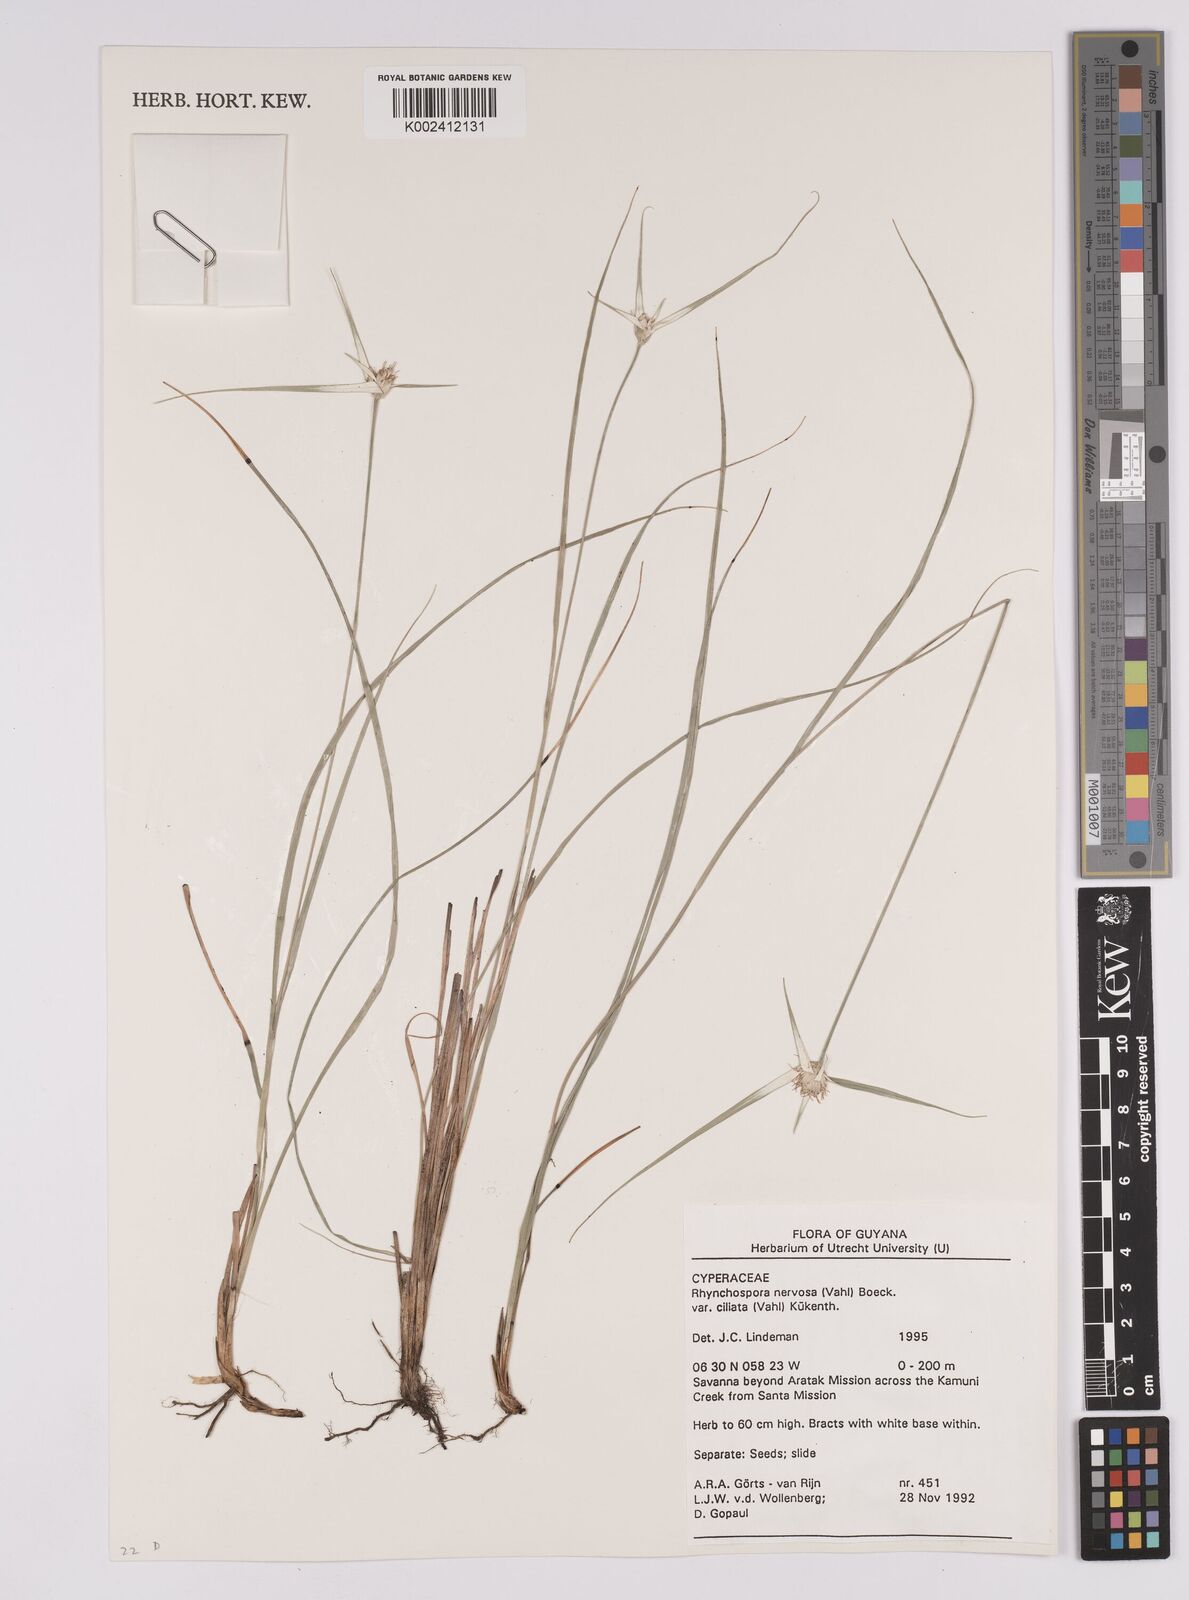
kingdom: Plantae
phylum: Tracheophyta
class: Liliopsida
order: Poales
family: Cyperaceae
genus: Rhynchospora
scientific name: Rhynchospora pura
